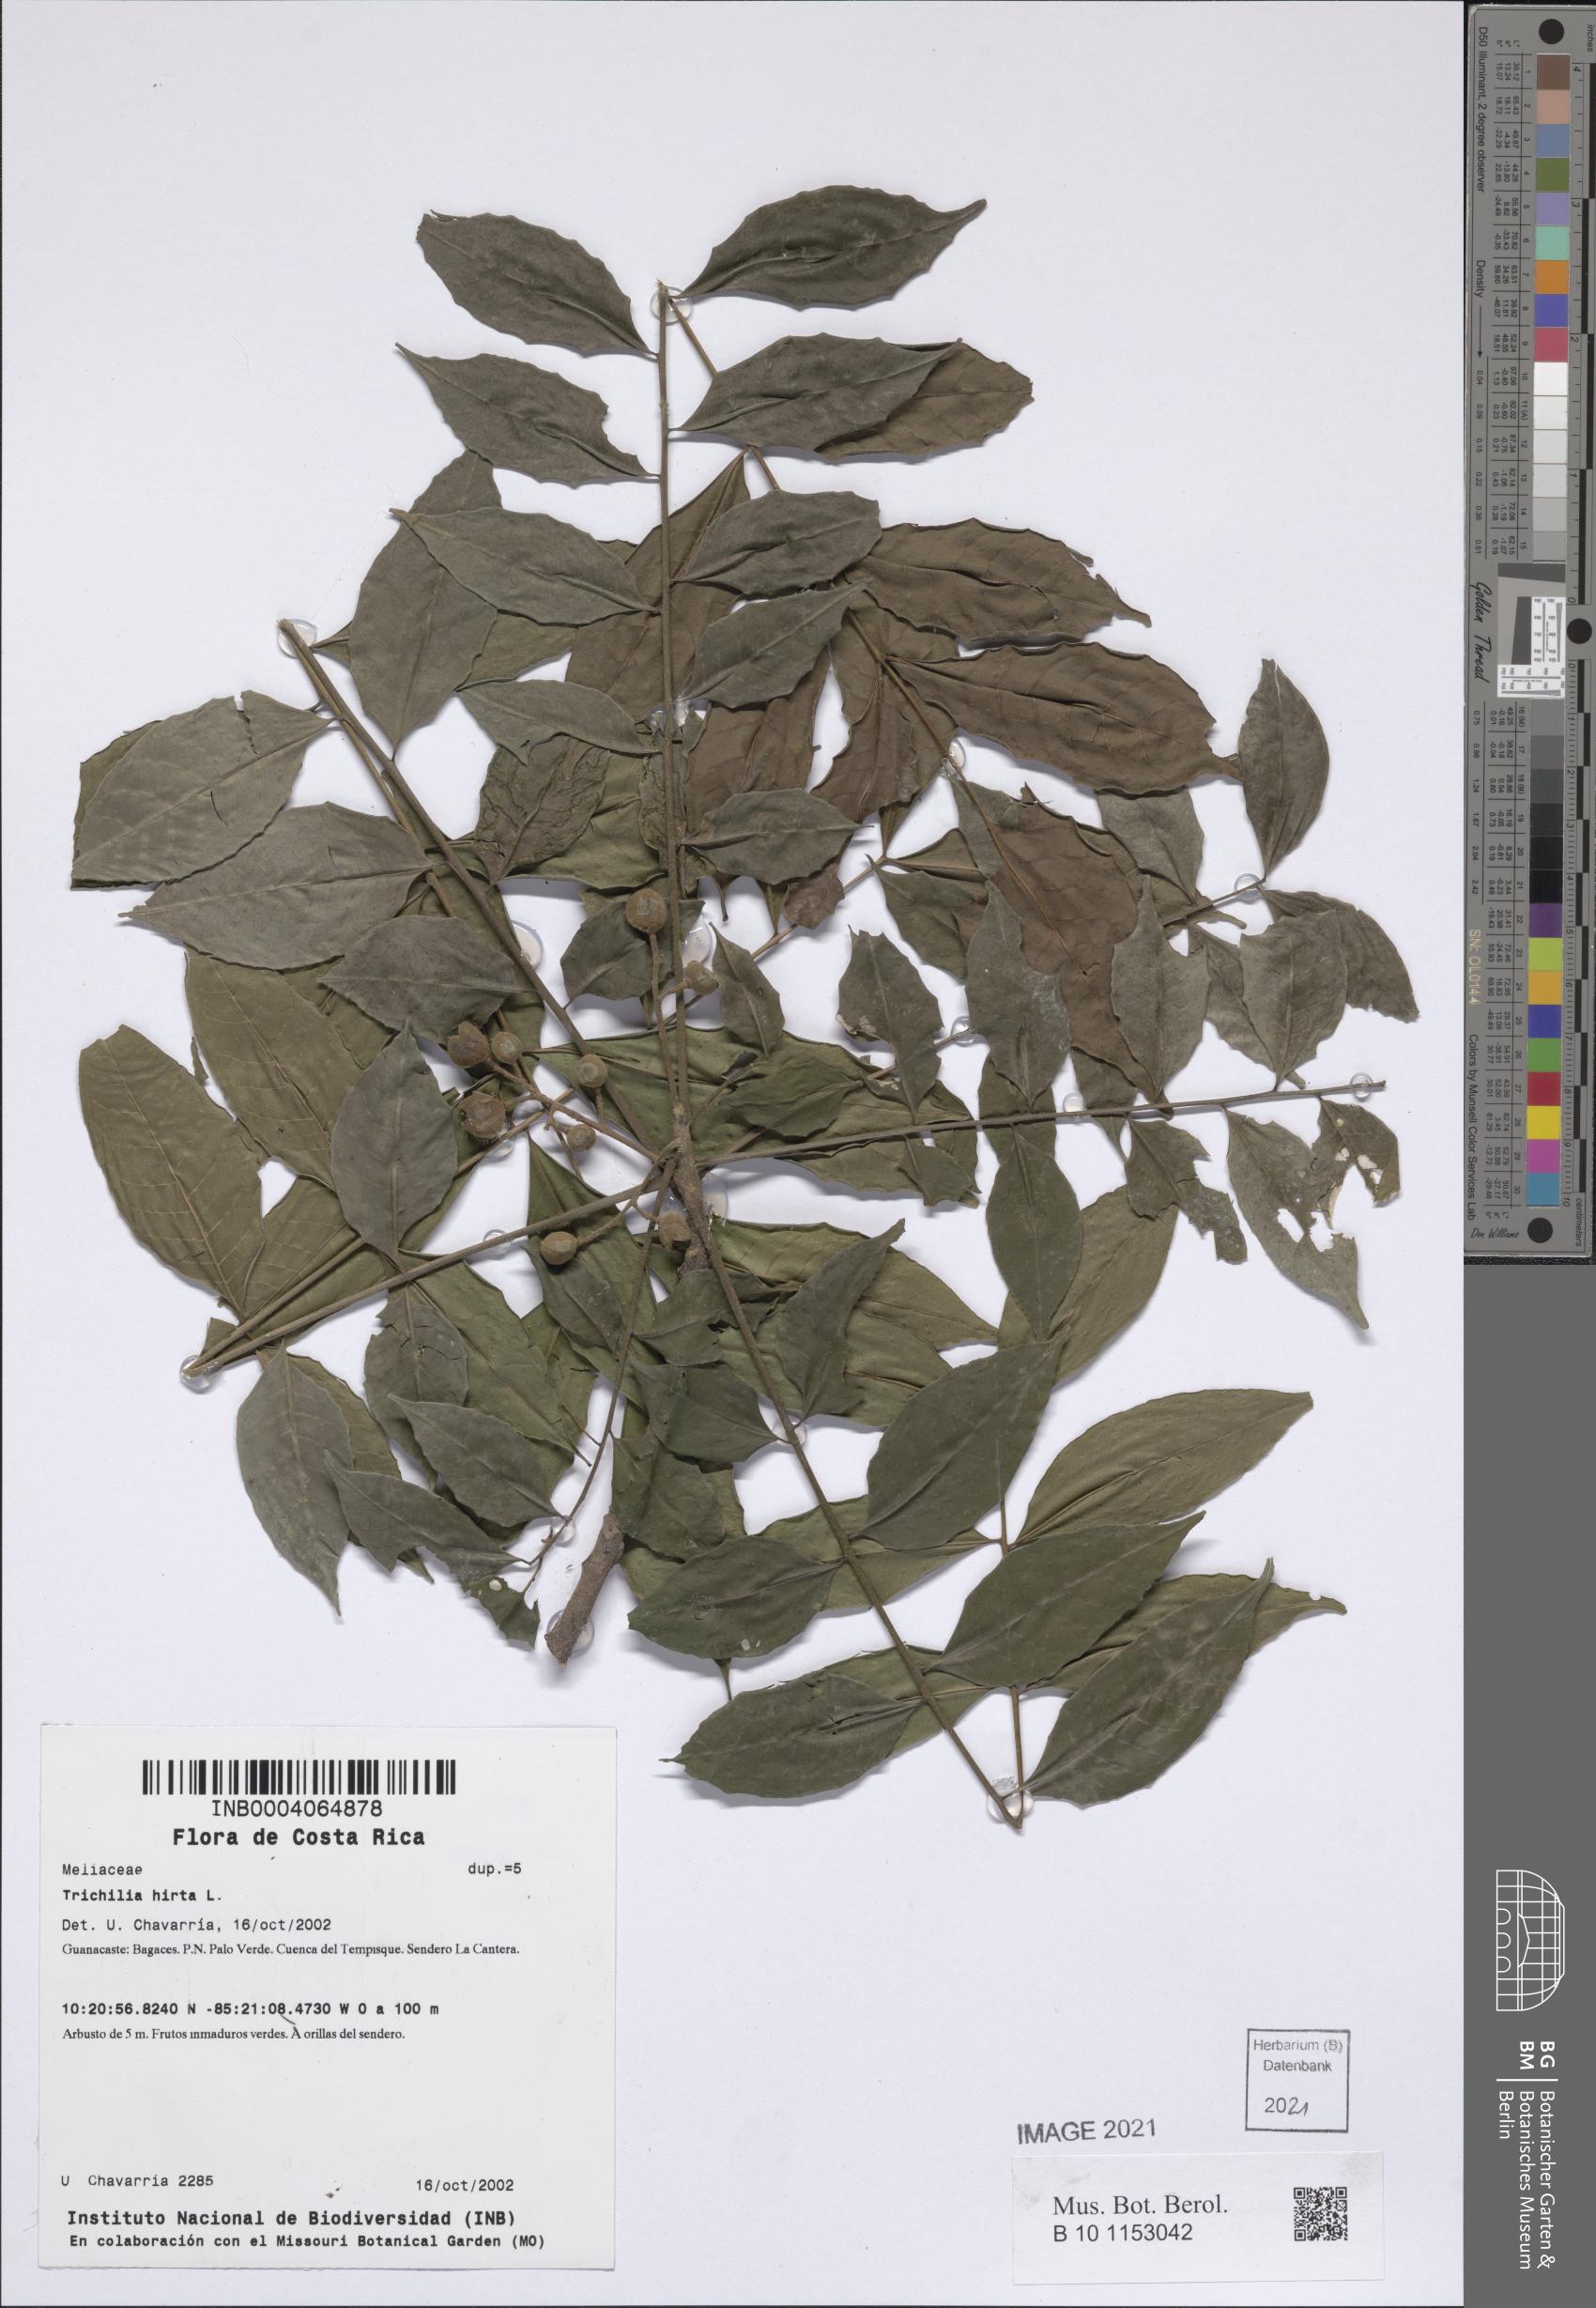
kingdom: Plantae
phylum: Tracheophyta
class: Magnoliopsida
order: Sapindales
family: Meliaceae
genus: Trichilia
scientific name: Trichilia hirta
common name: Red-cedar
